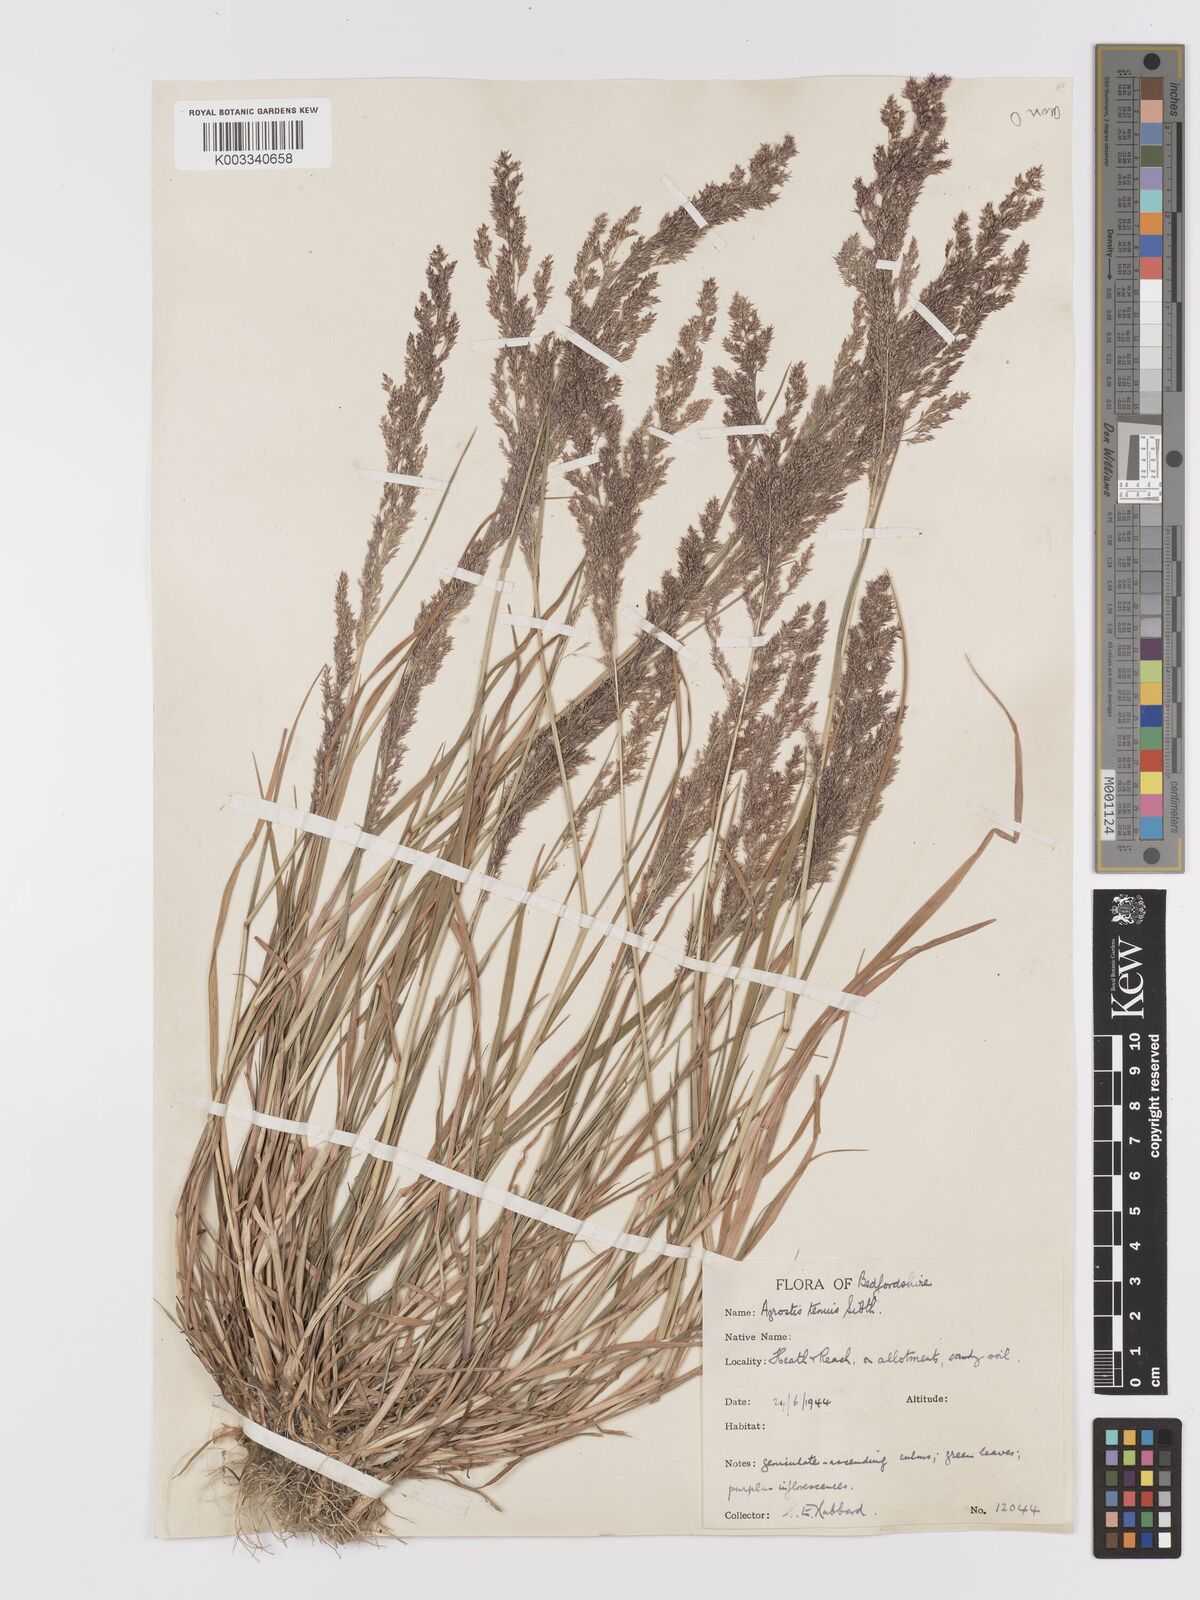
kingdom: Plantae
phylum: Tracheophyta
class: Liliopsida
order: Poales
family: Poaceae
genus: Agrostis
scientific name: Agrostis capillaris
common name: Colonial bentgrass
